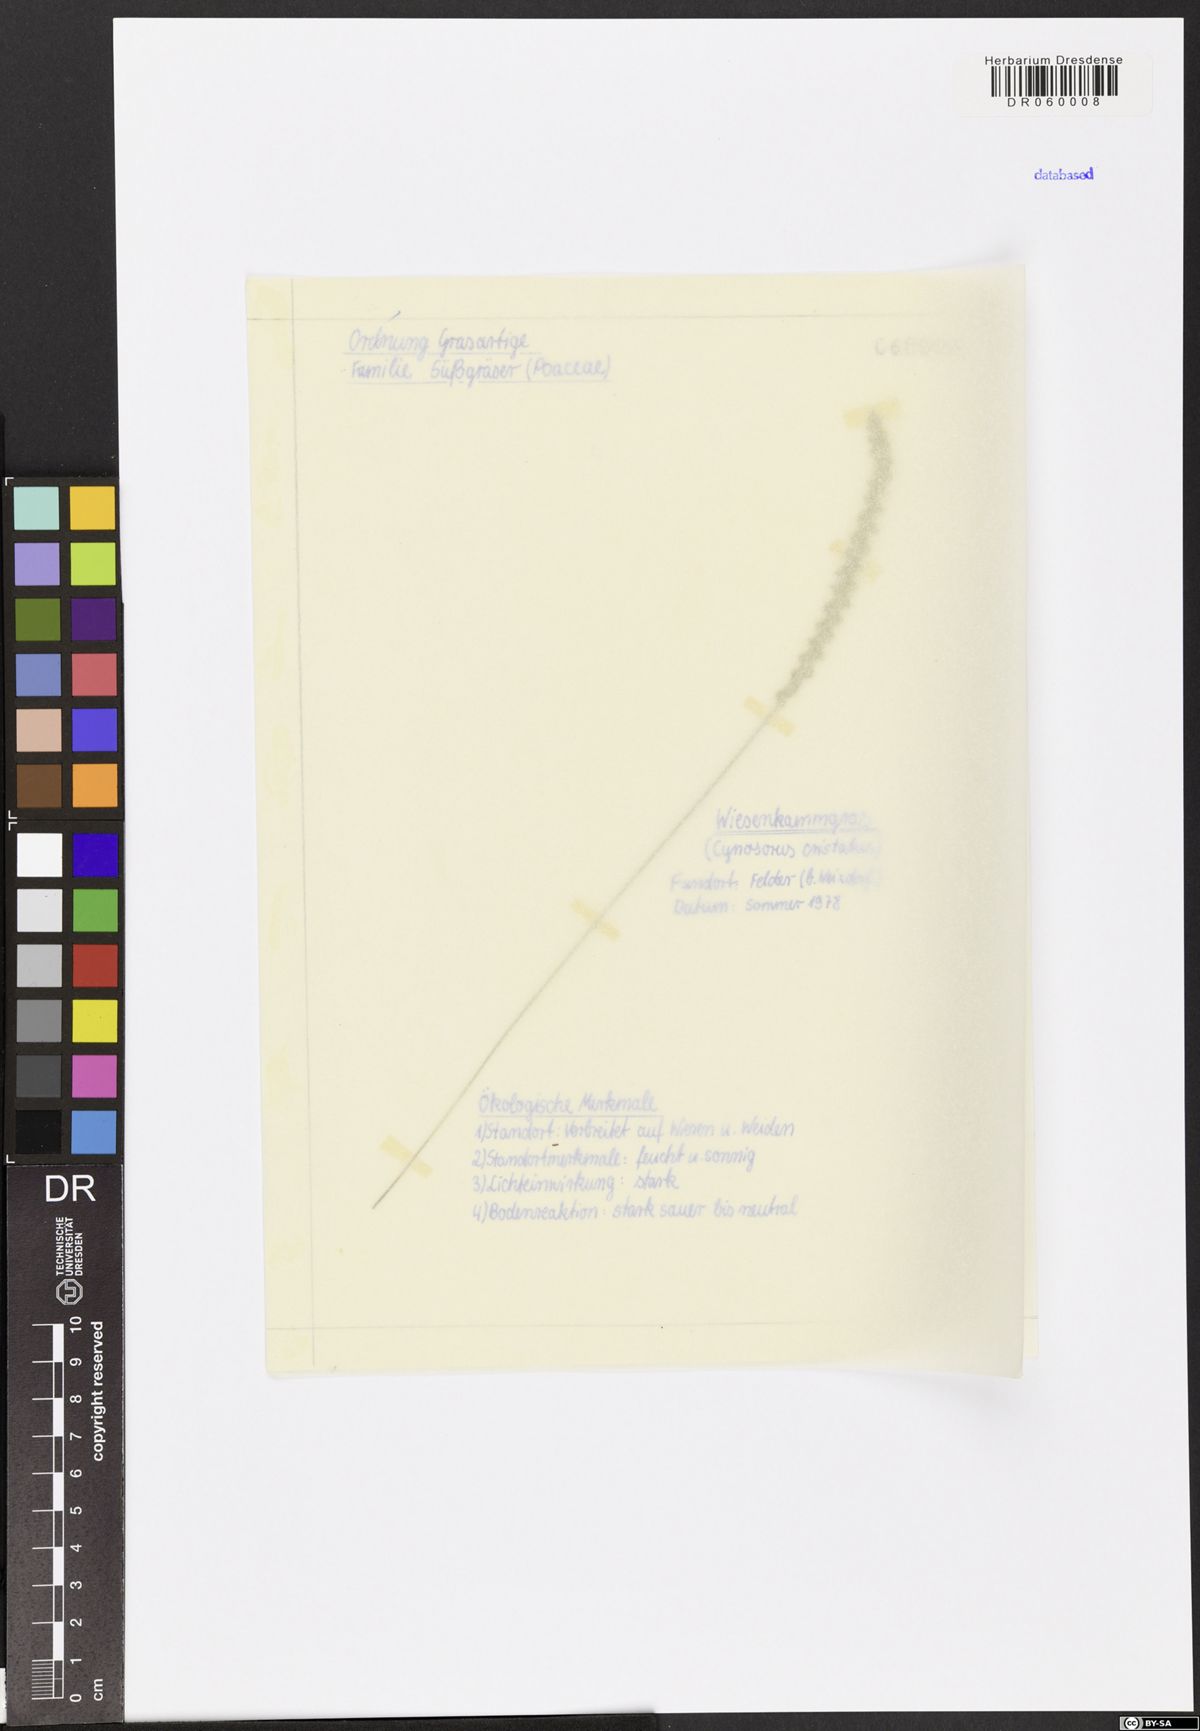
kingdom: Plantae
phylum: Tracheophyta
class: Liliopsida
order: Poales
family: Poaceae
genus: Cynosurus
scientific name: Cynosurus cristatus
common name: Crested dog's-tail
